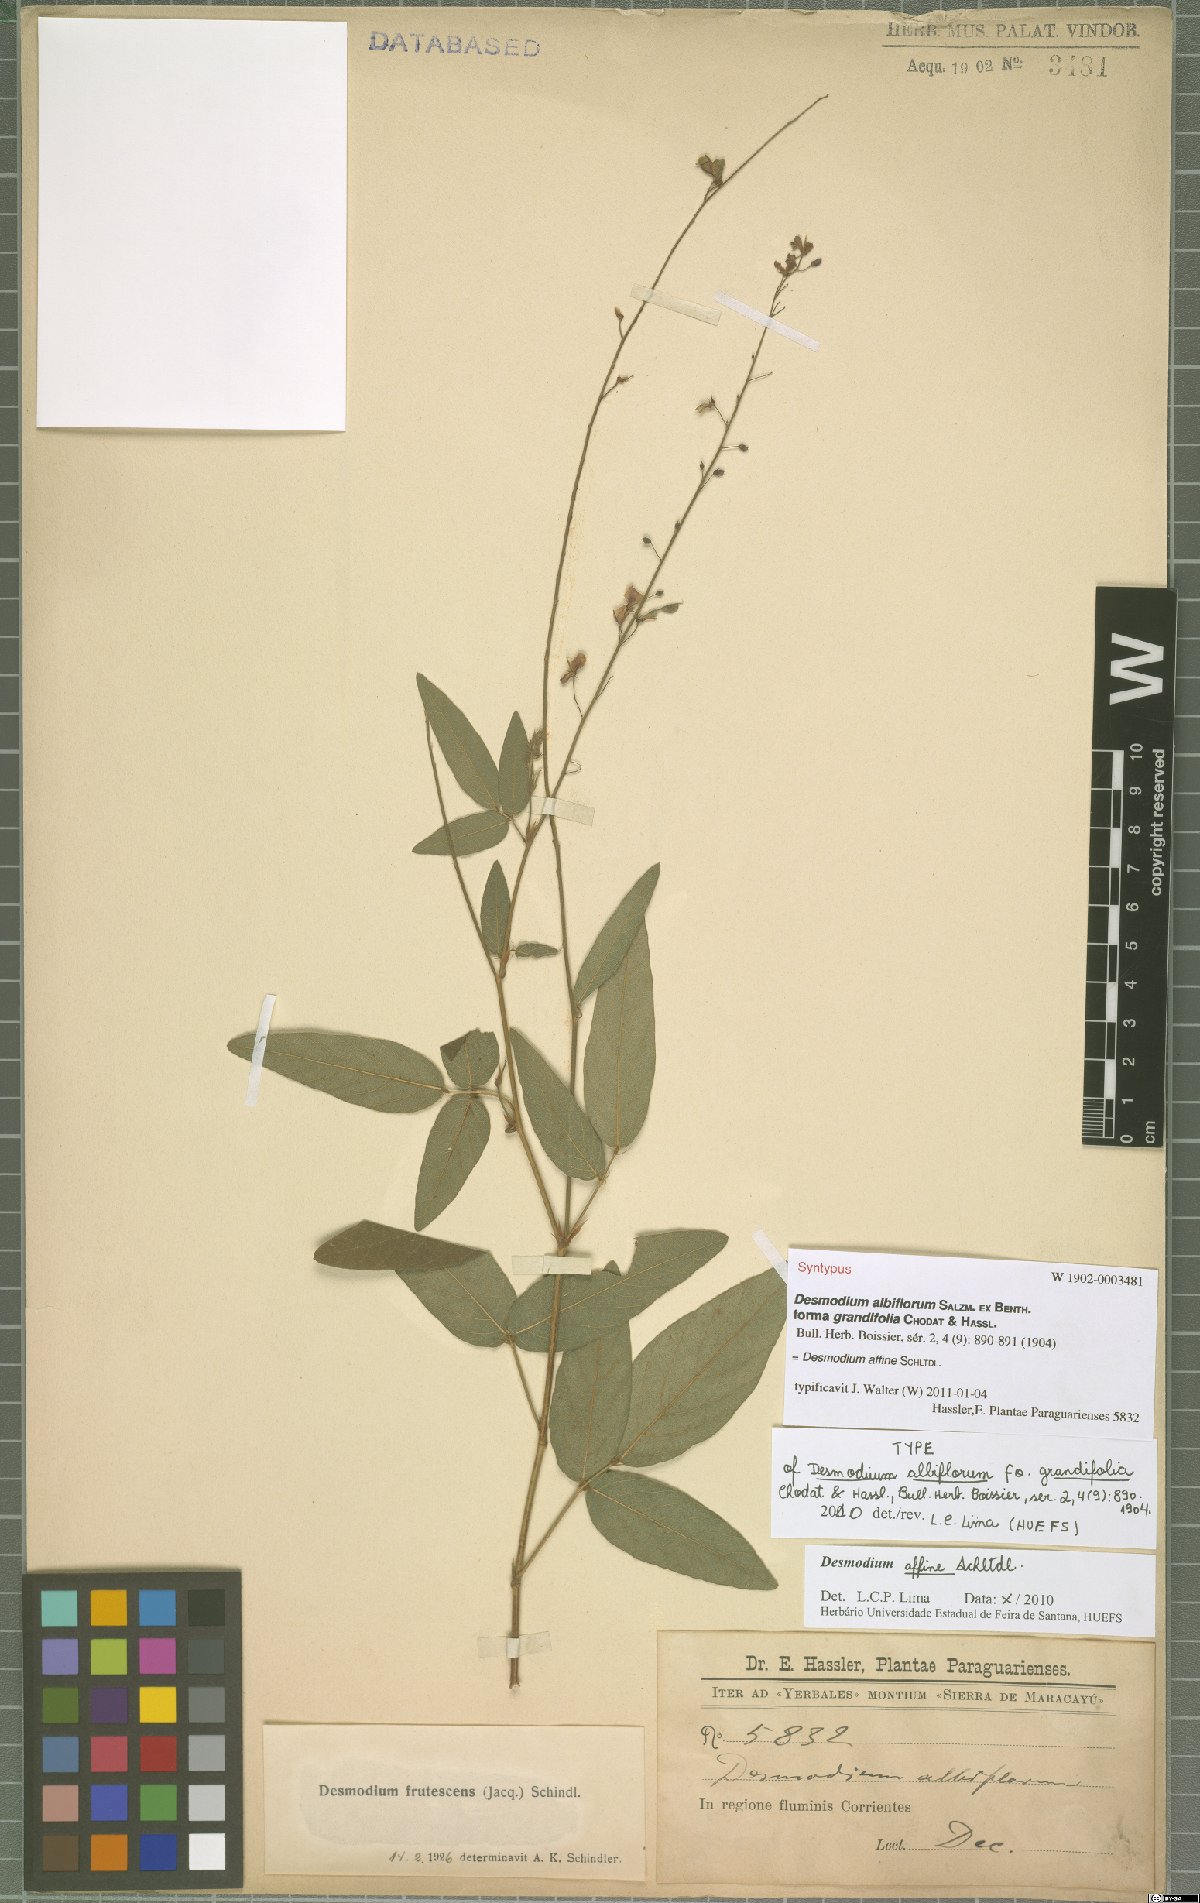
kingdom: Plantae
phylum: Tracheophyta
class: Magnoliopsida
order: Fabales
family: Fabaceae
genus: Desmodium
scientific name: Desmodium affine
